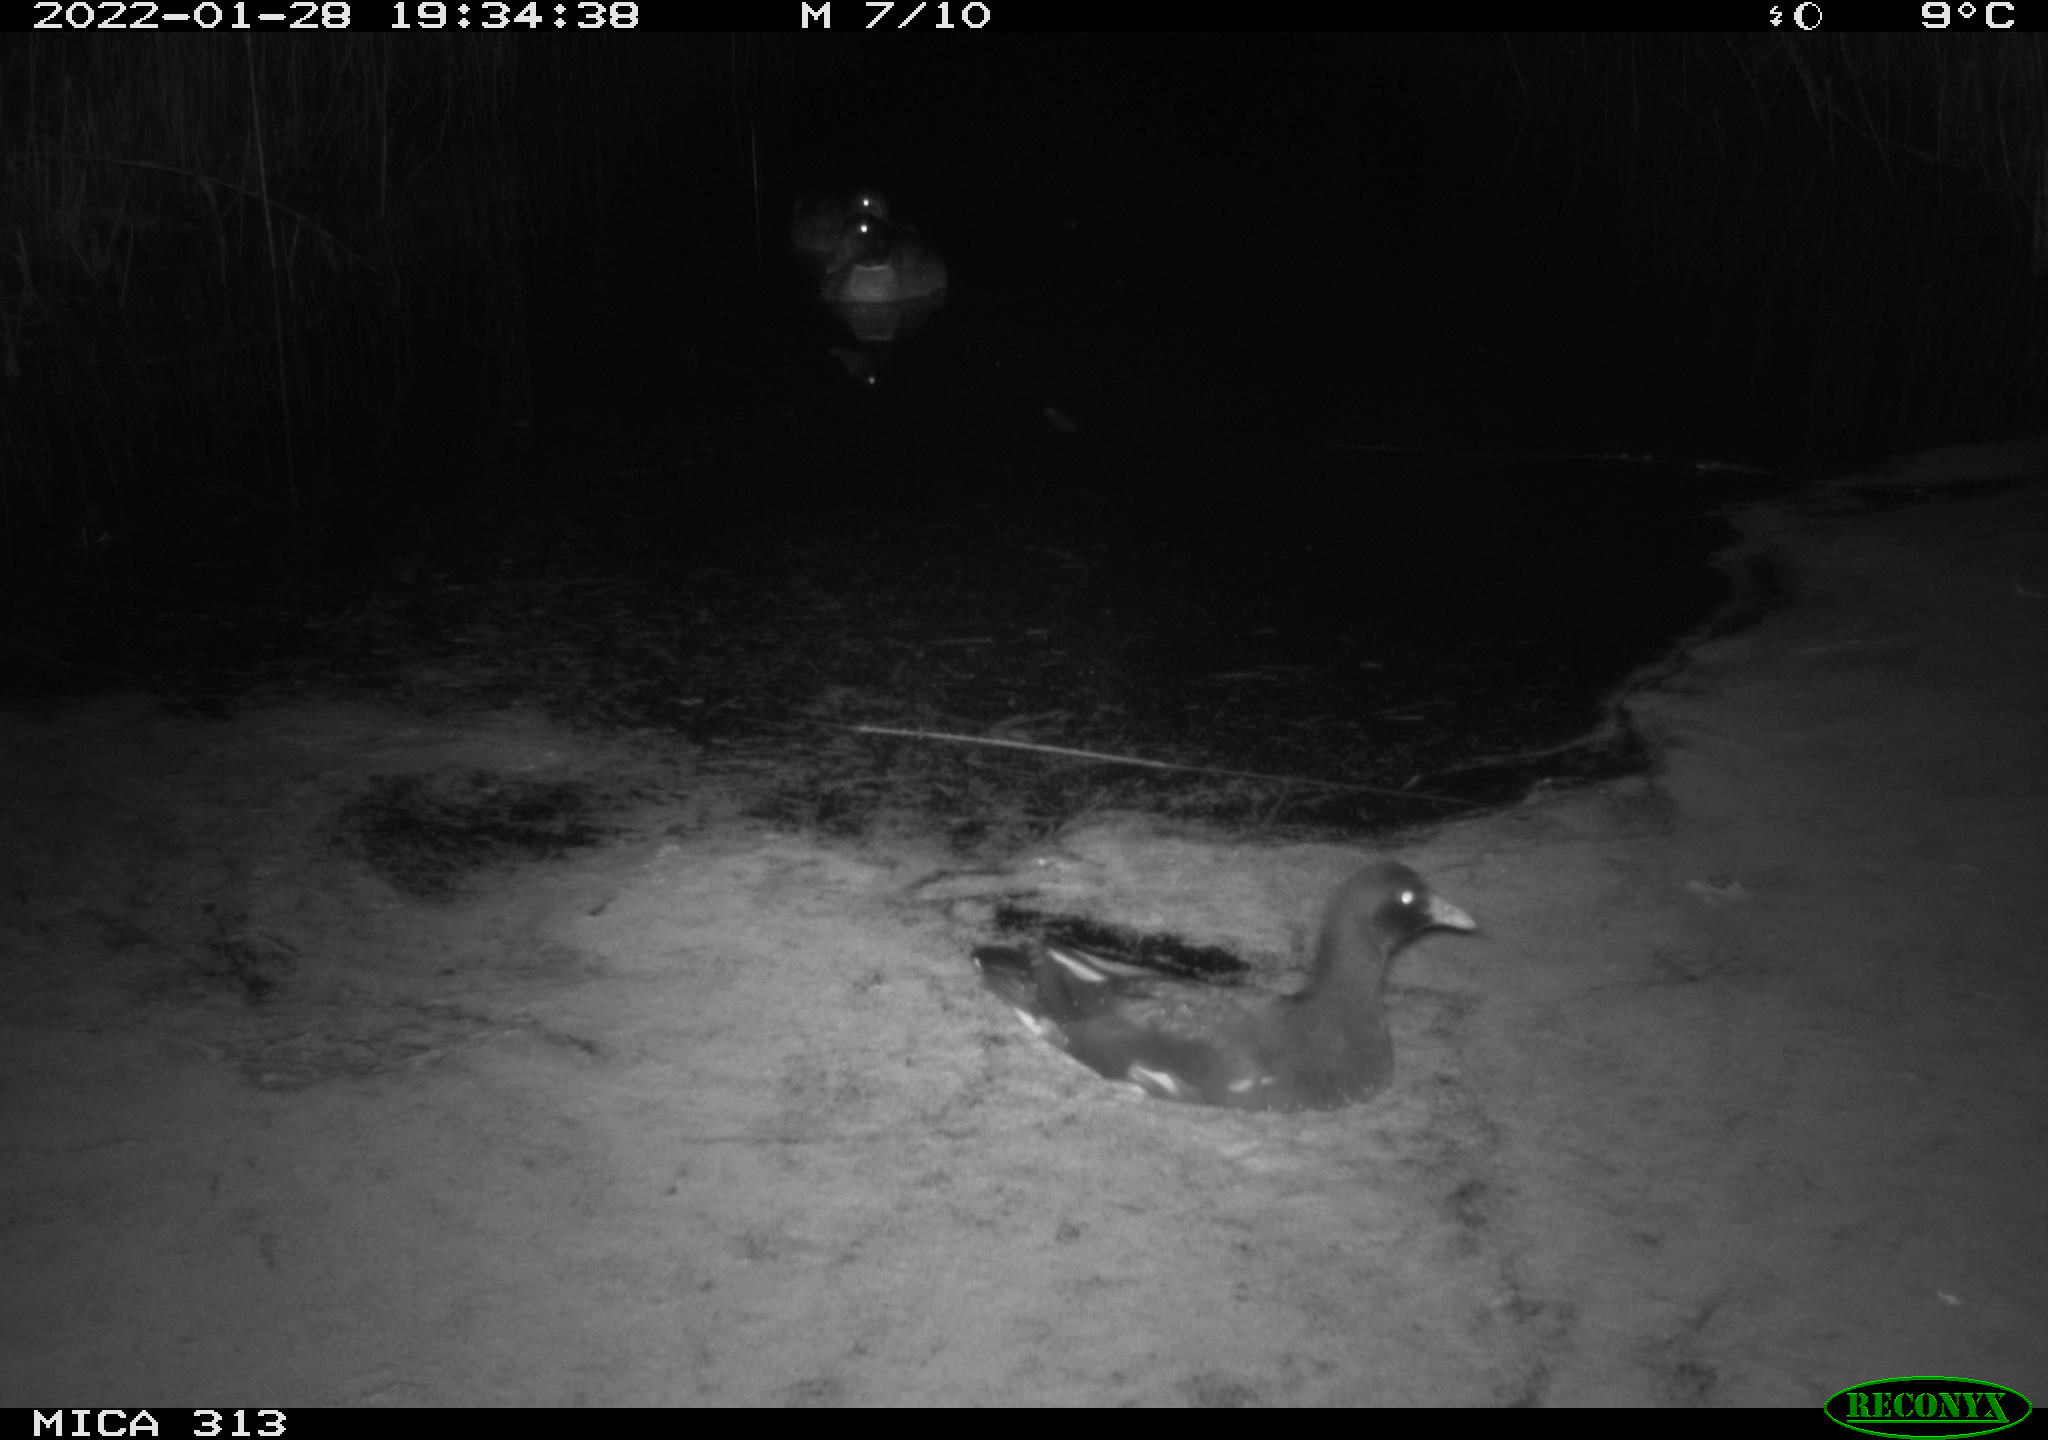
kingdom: Animalia
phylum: Chordata
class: Aves
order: Gruiformes
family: Rallidae
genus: Gallinula
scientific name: Gallinula chloropus
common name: Common moorhen
